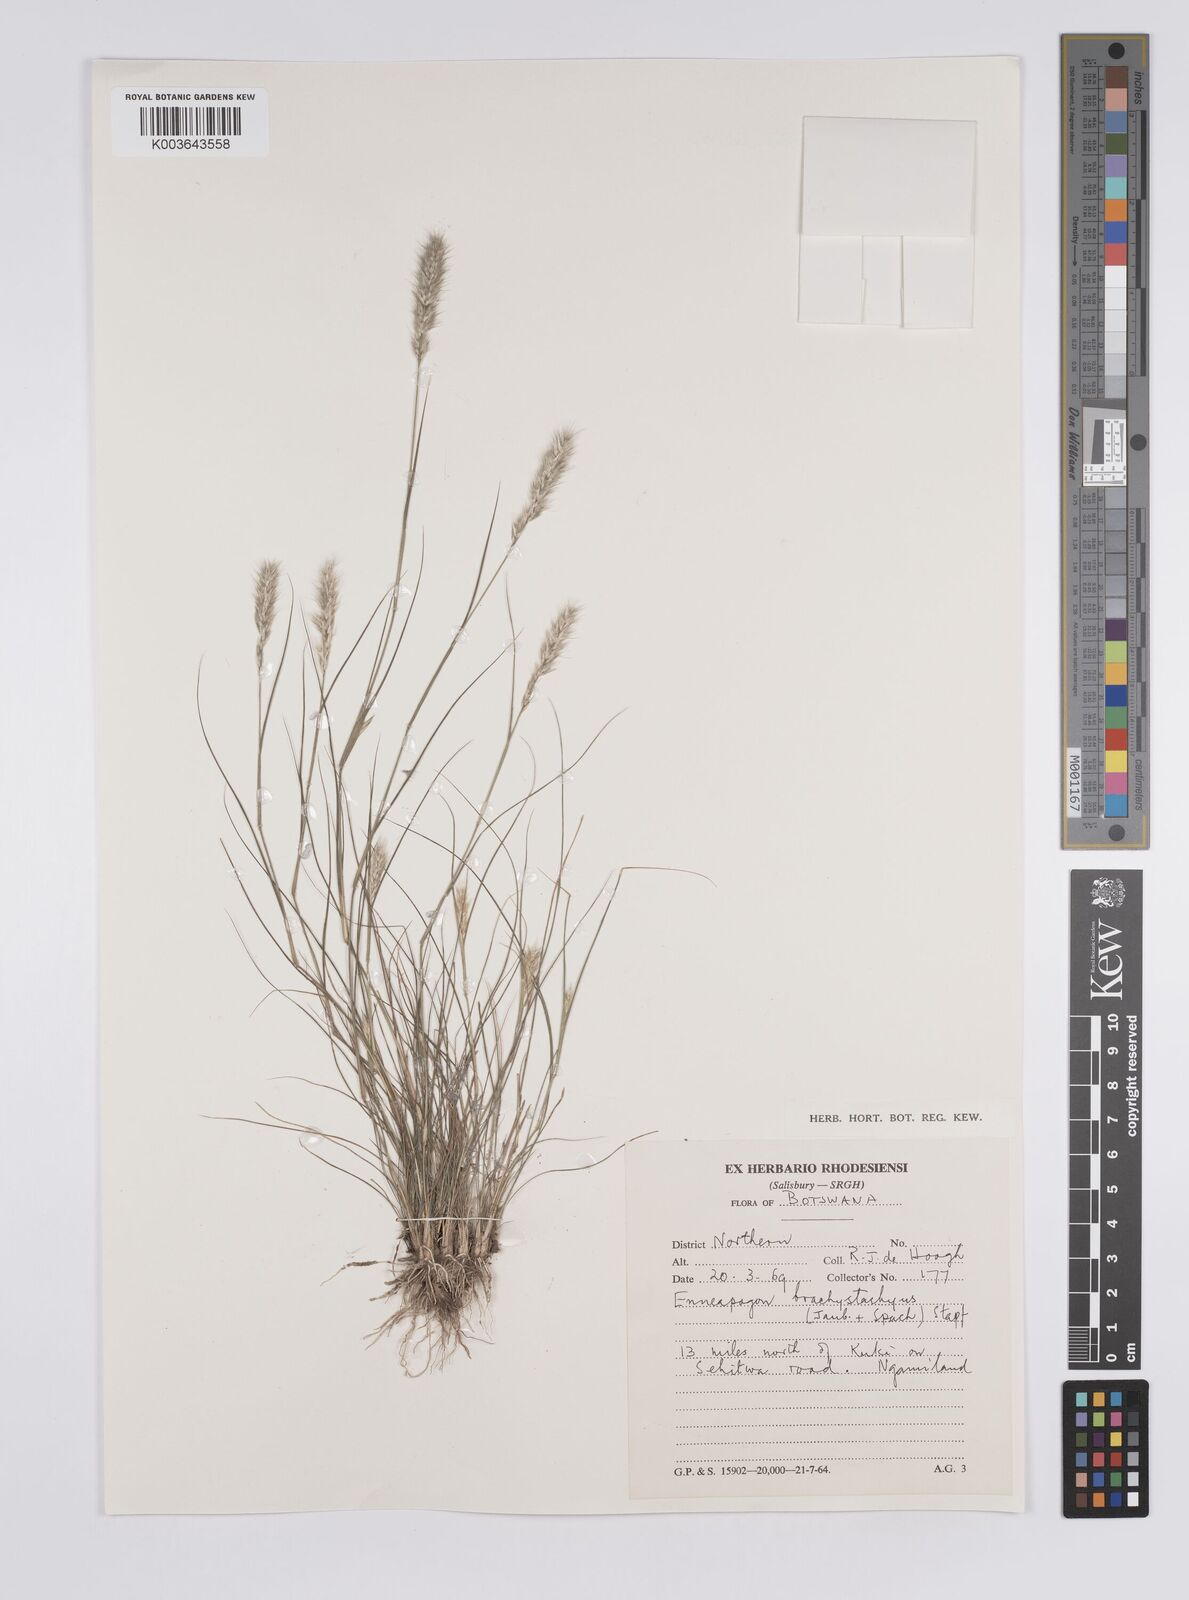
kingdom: Plantae
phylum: Tracheophyta
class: Liliopsida
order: Poales
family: Poaceae
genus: Enneapogon
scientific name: Enneapogon desvauxii
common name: Feather pappus grass
